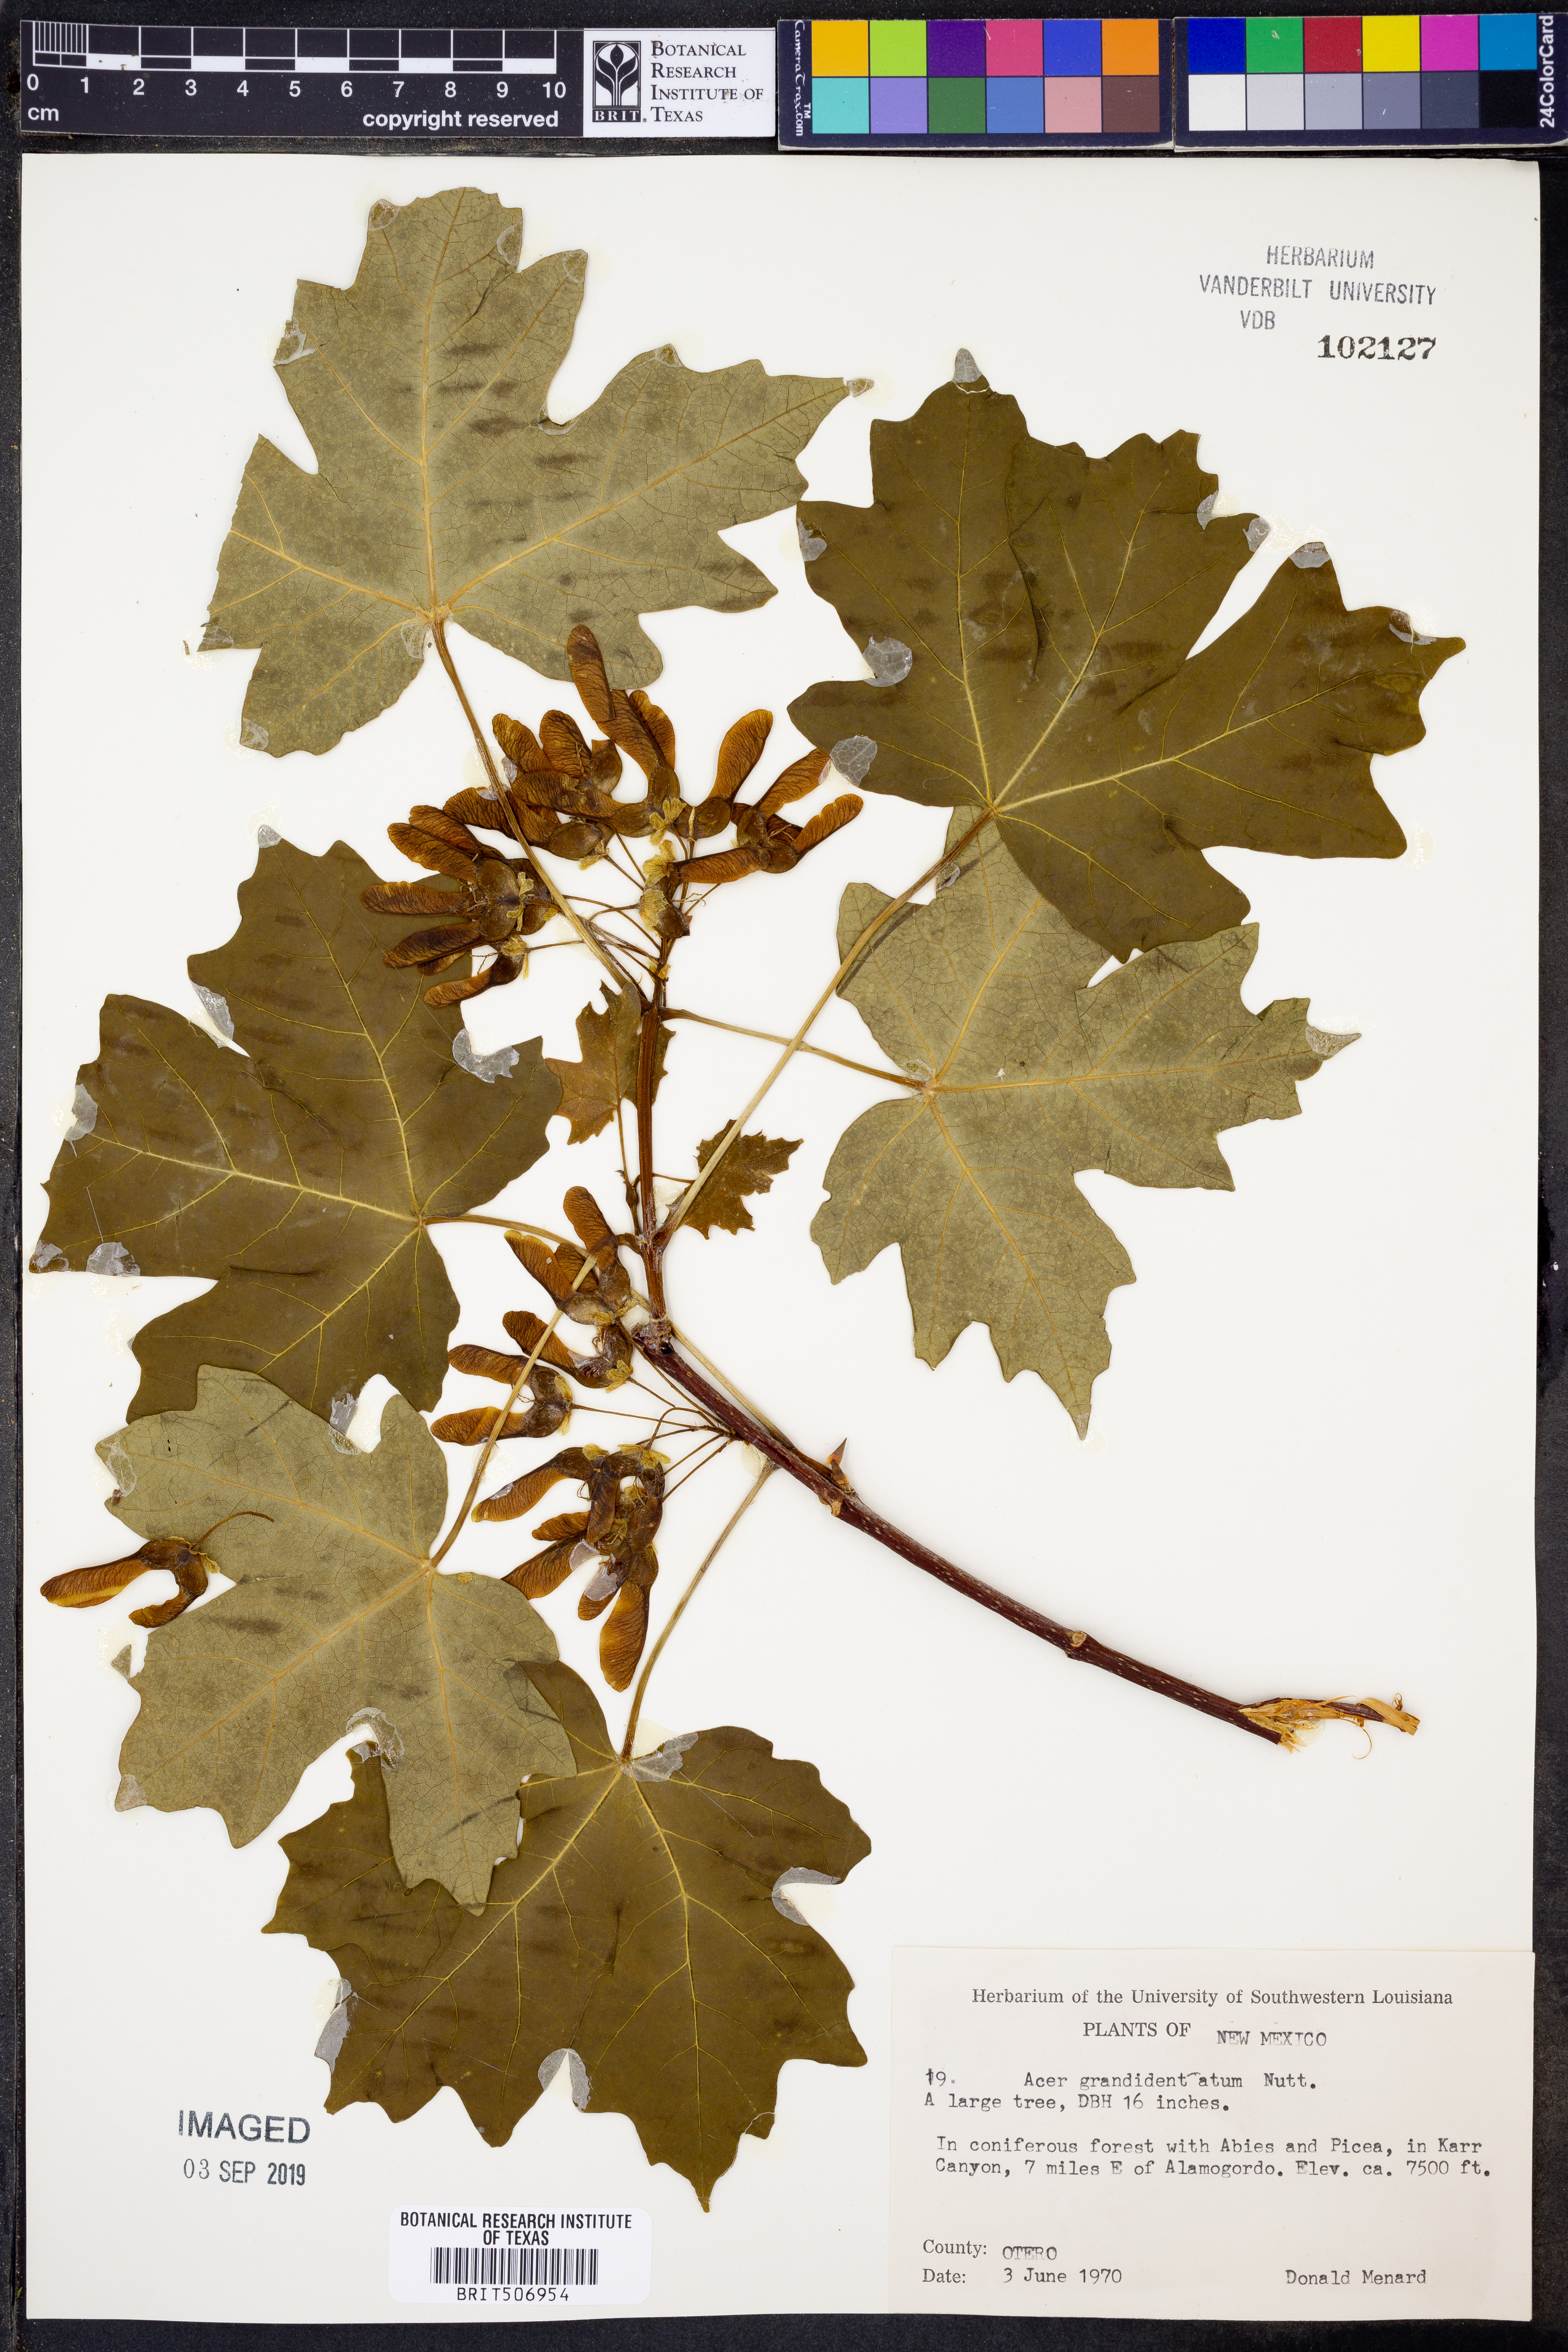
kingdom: Plantae
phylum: Tracheophyta
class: Magnoliopsida
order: Sapindales
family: Sapindaceae
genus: Acer
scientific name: Acer grandidentatum
